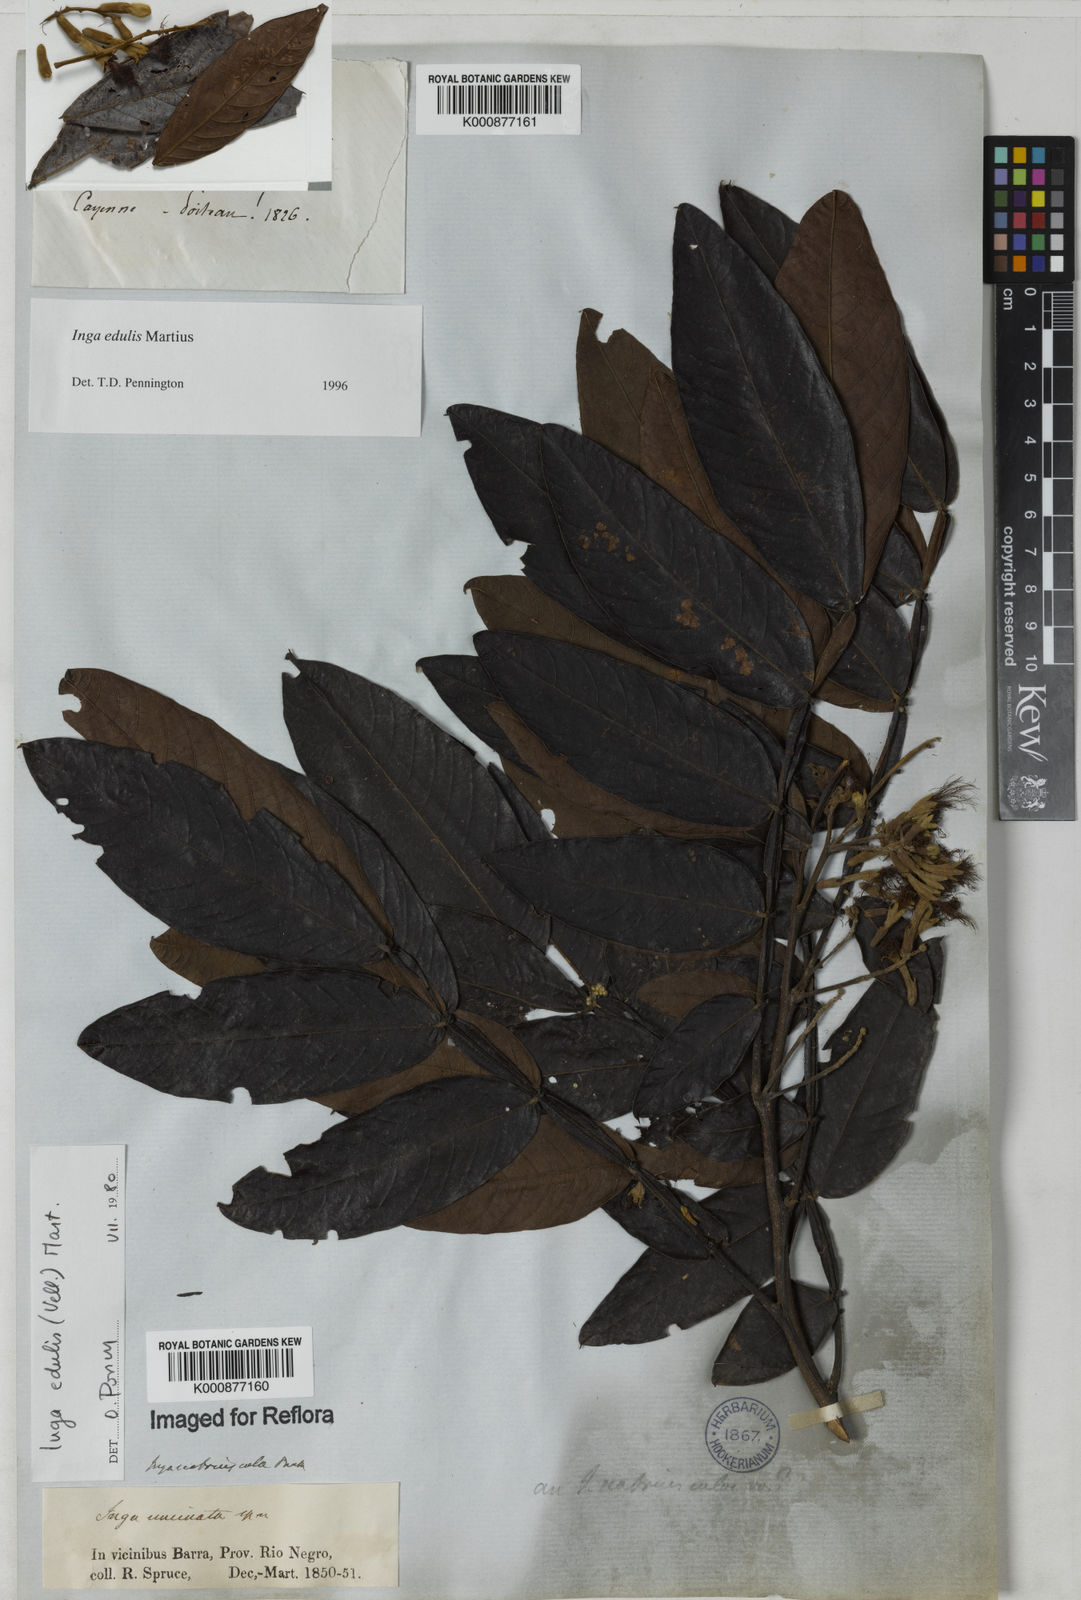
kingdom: Plantae
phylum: Tracheophyta
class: Magnoliopsida
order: Fabales
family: Fabaceae
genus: Inga
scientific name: Inga edulis
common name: Ice cream bean
